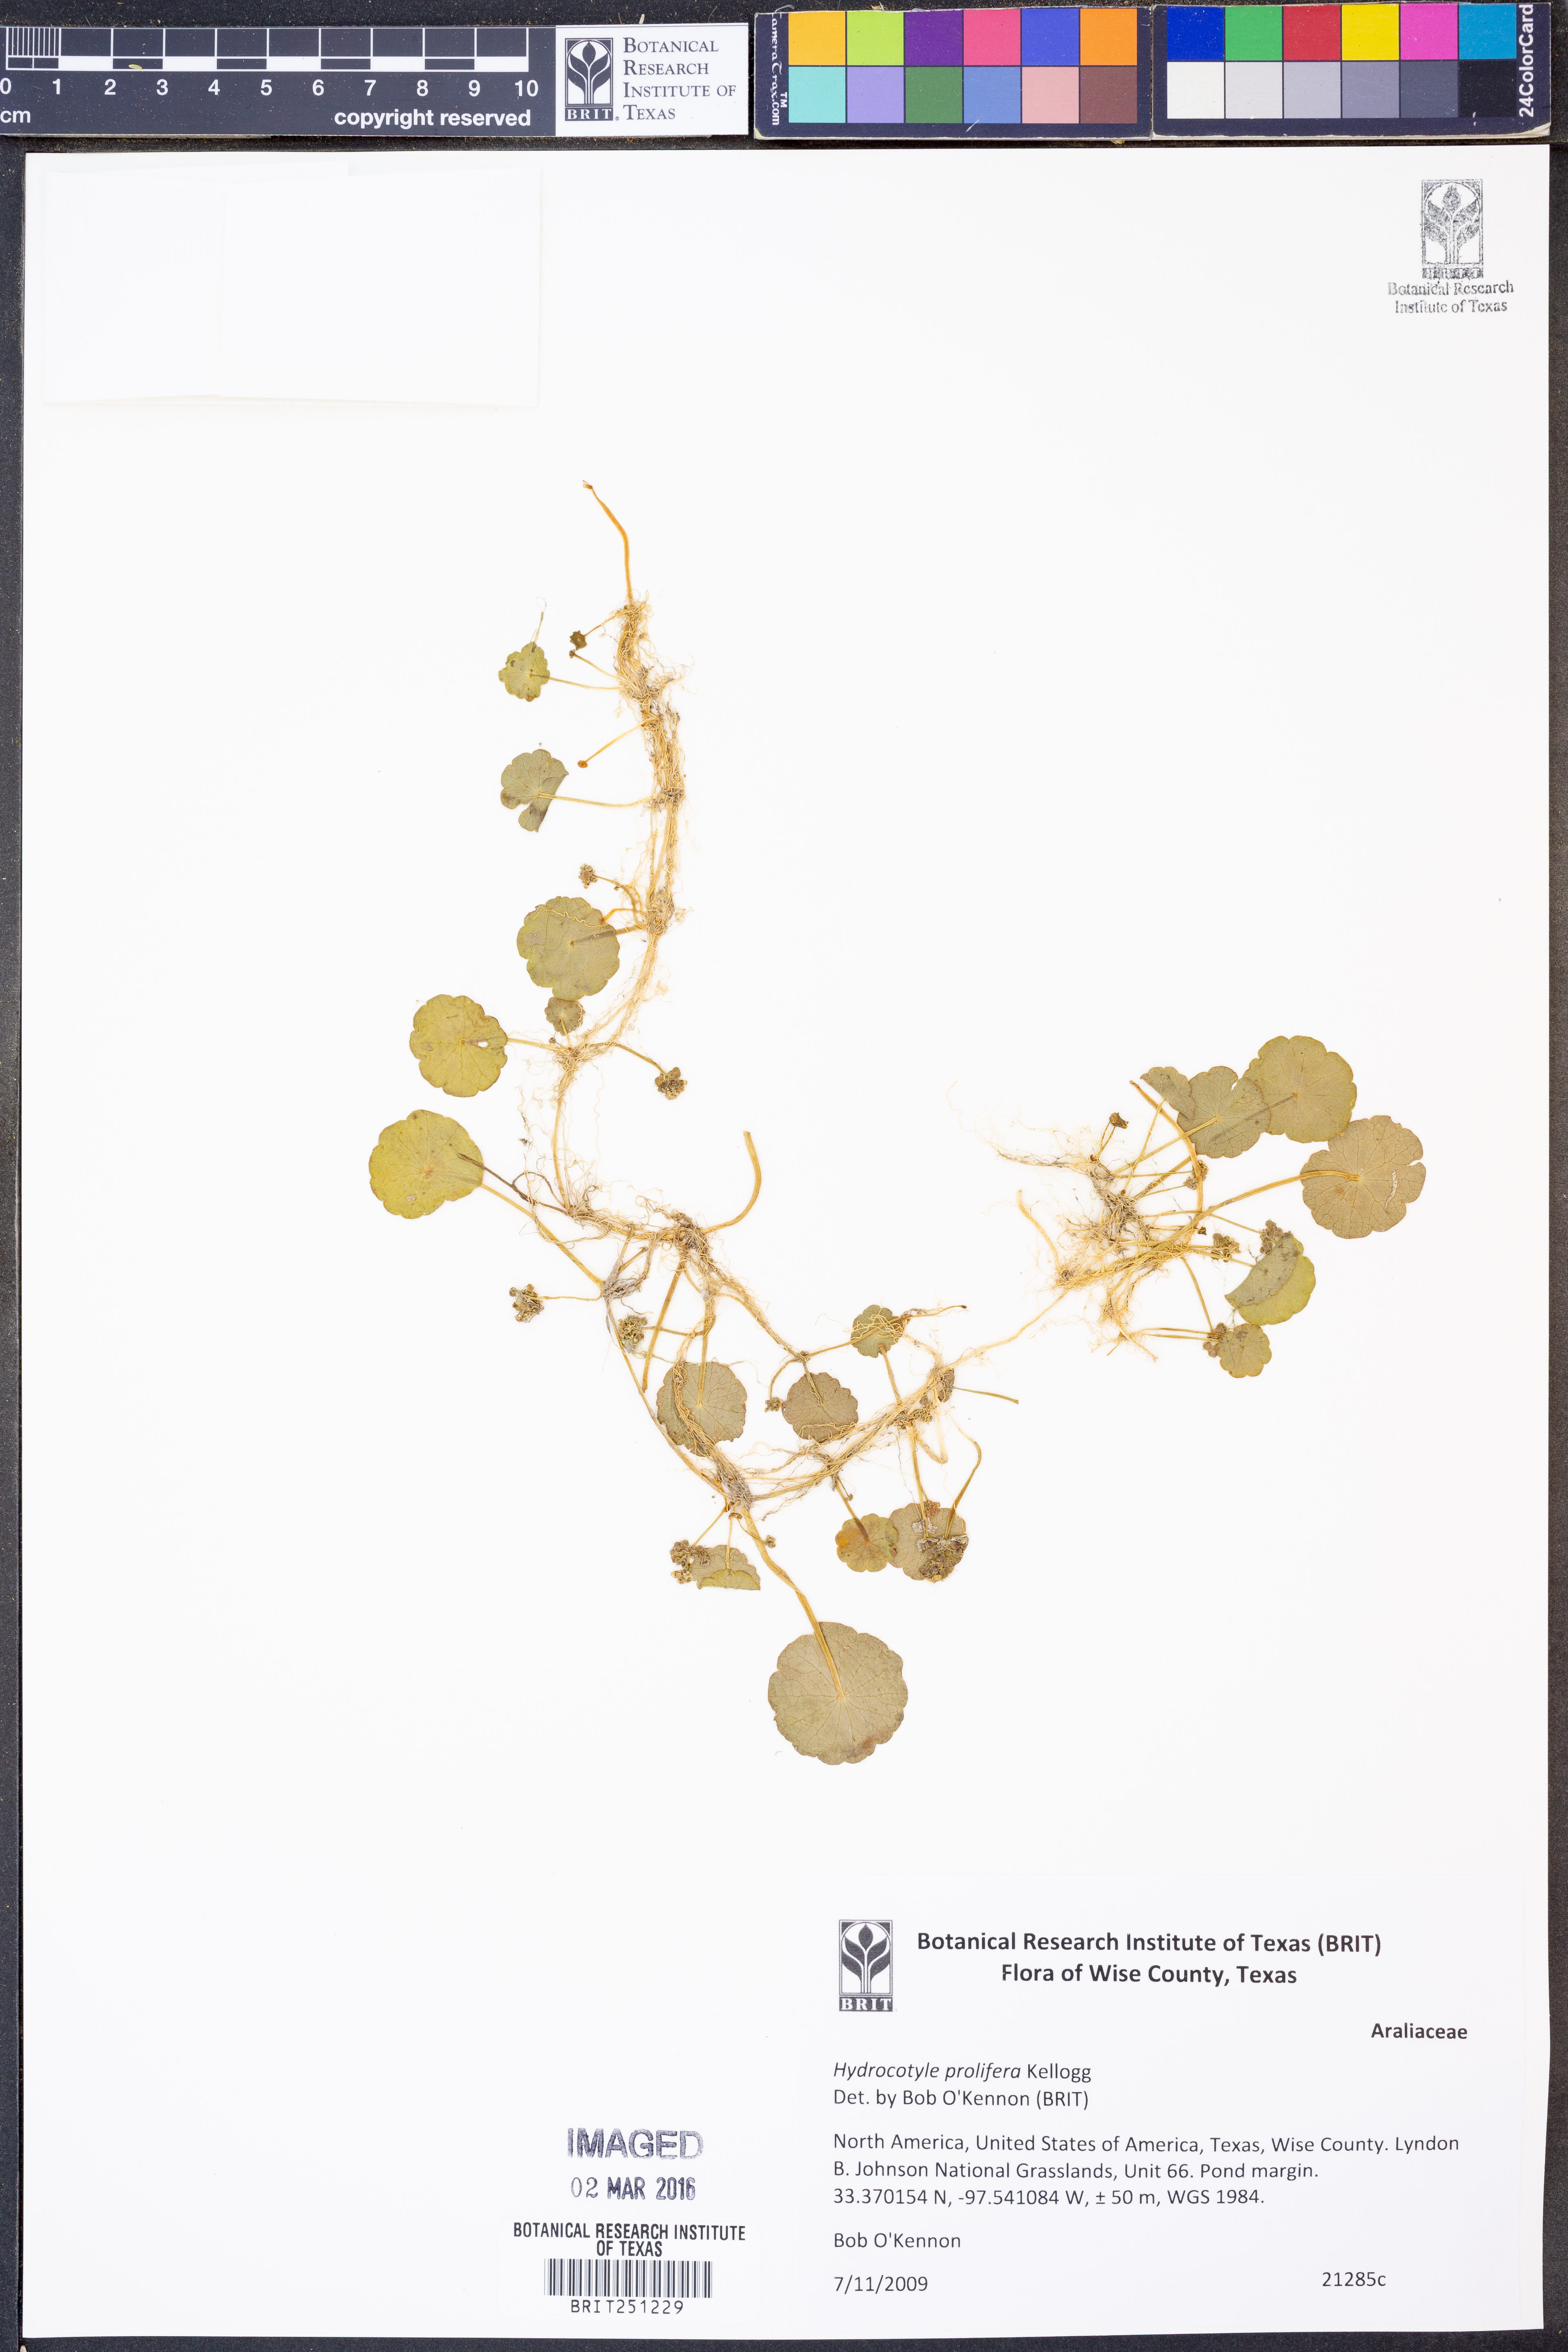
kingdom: Plantae
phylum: Tracheophyta
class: Magnoliopsida
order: Apiales
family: Araliaceae
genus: Hydrocotyle
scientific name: Hydrocotyle prolifera
